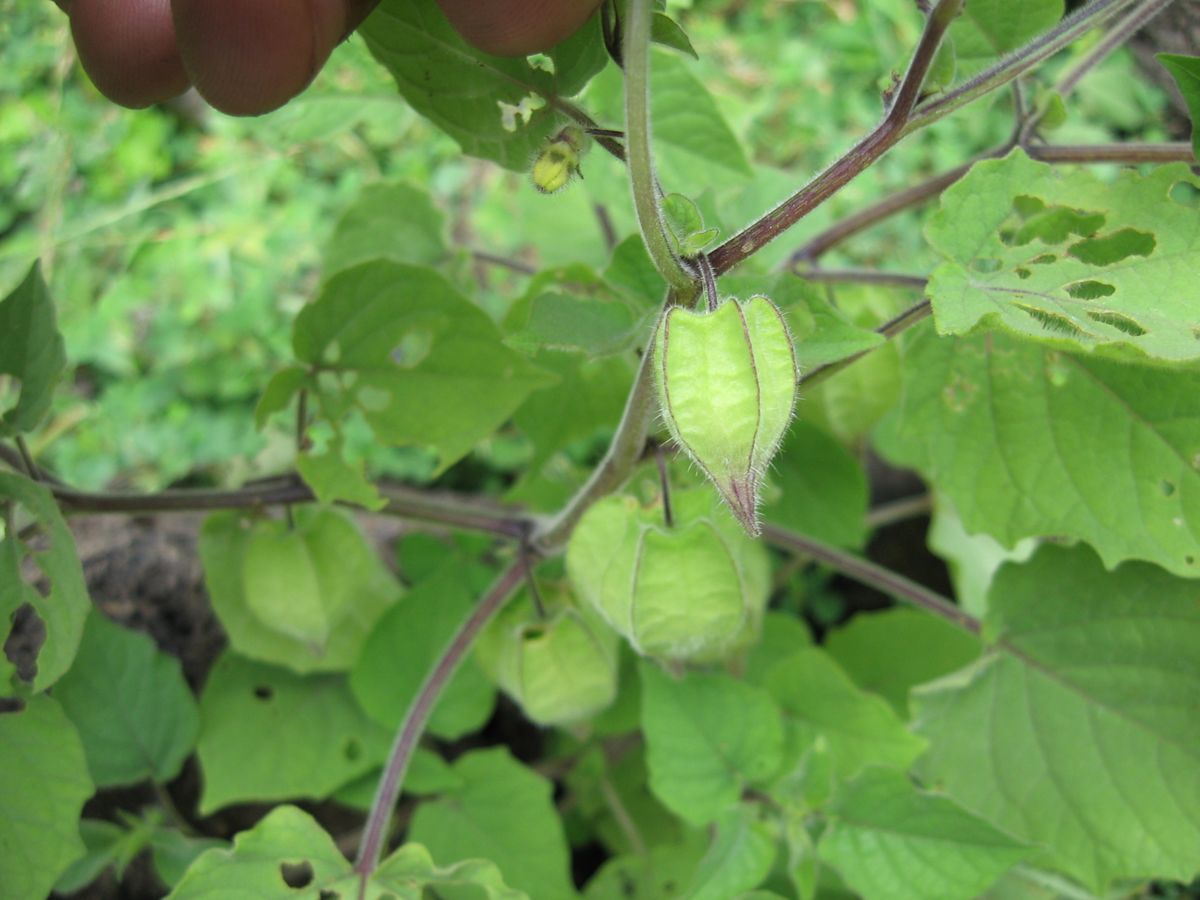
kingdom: Plantae
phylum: Tracheophyta
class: Magnoliopsida
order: Solanales
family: Solanaceae
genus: Physalis
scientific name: Physalis pubescens
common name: Downy ground-cherry
